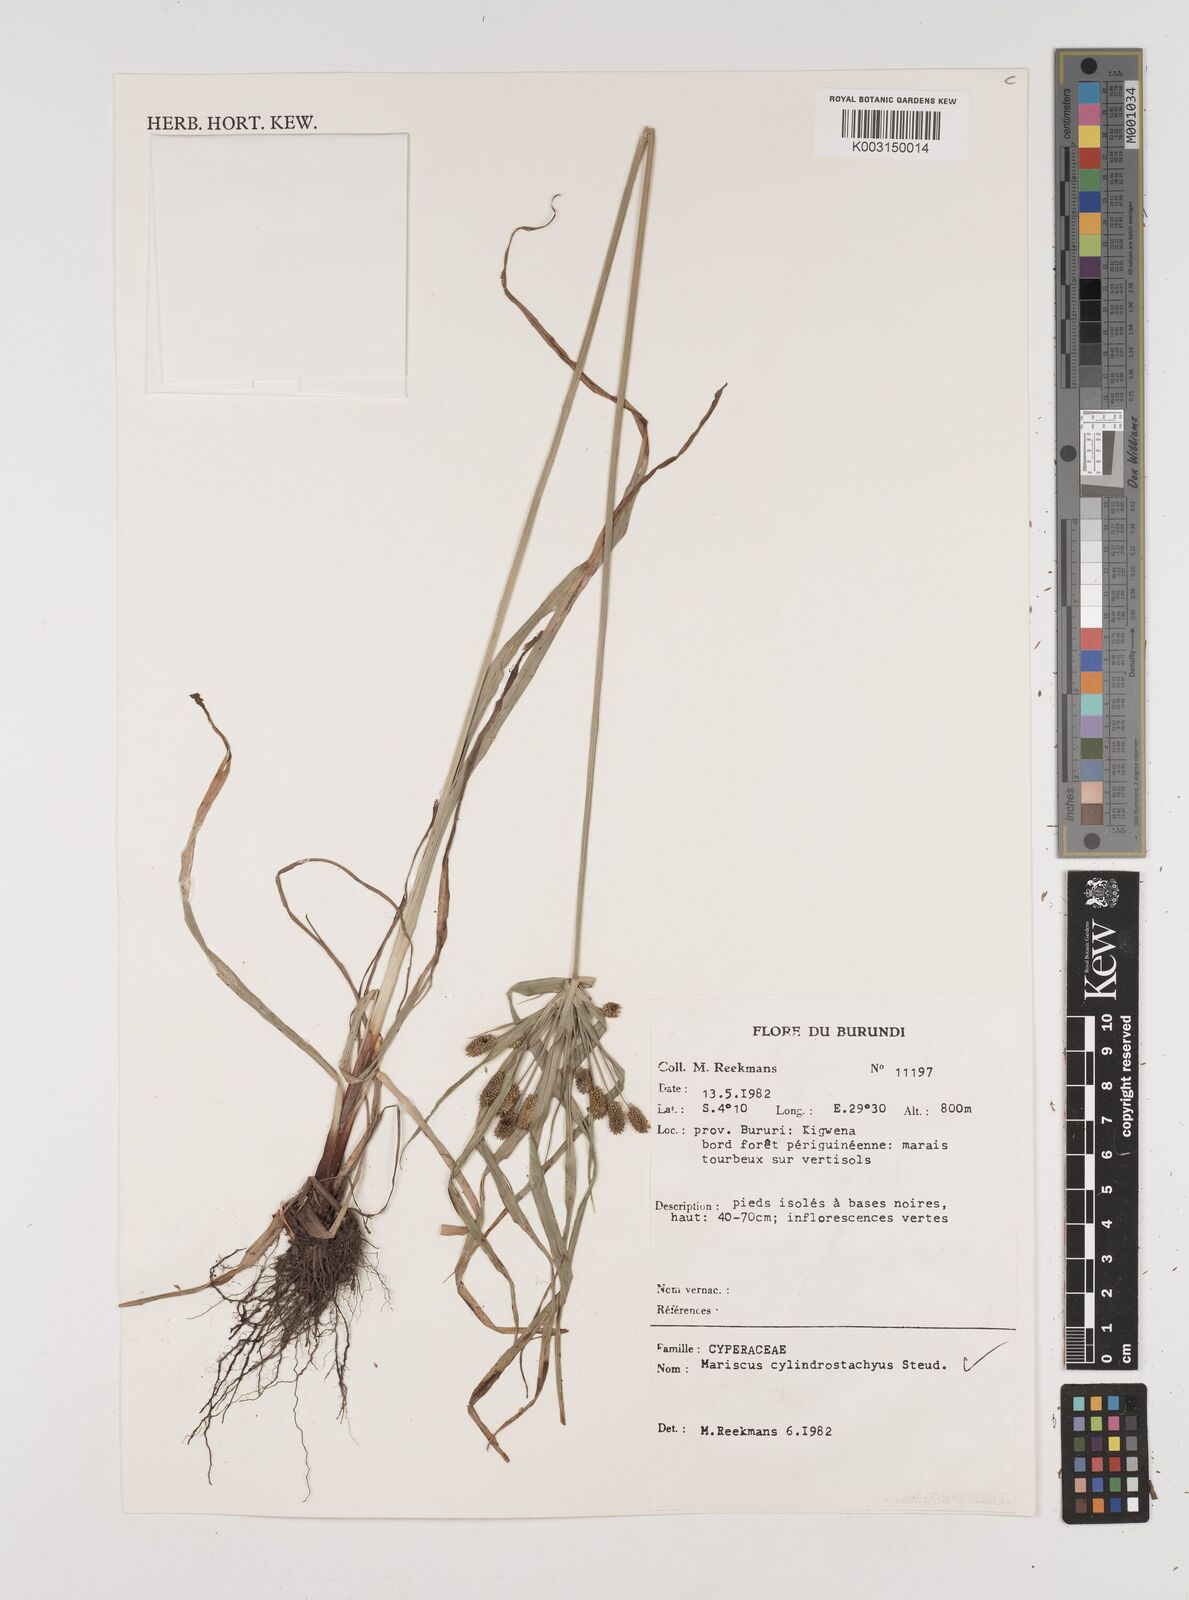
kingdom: Plantae
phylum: Tracheophyta
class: Liliopsida
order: Poales
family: Cyperaceae
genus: Cyperus
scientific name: Cyperus cyperoides
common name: Pacific island flat sedge
